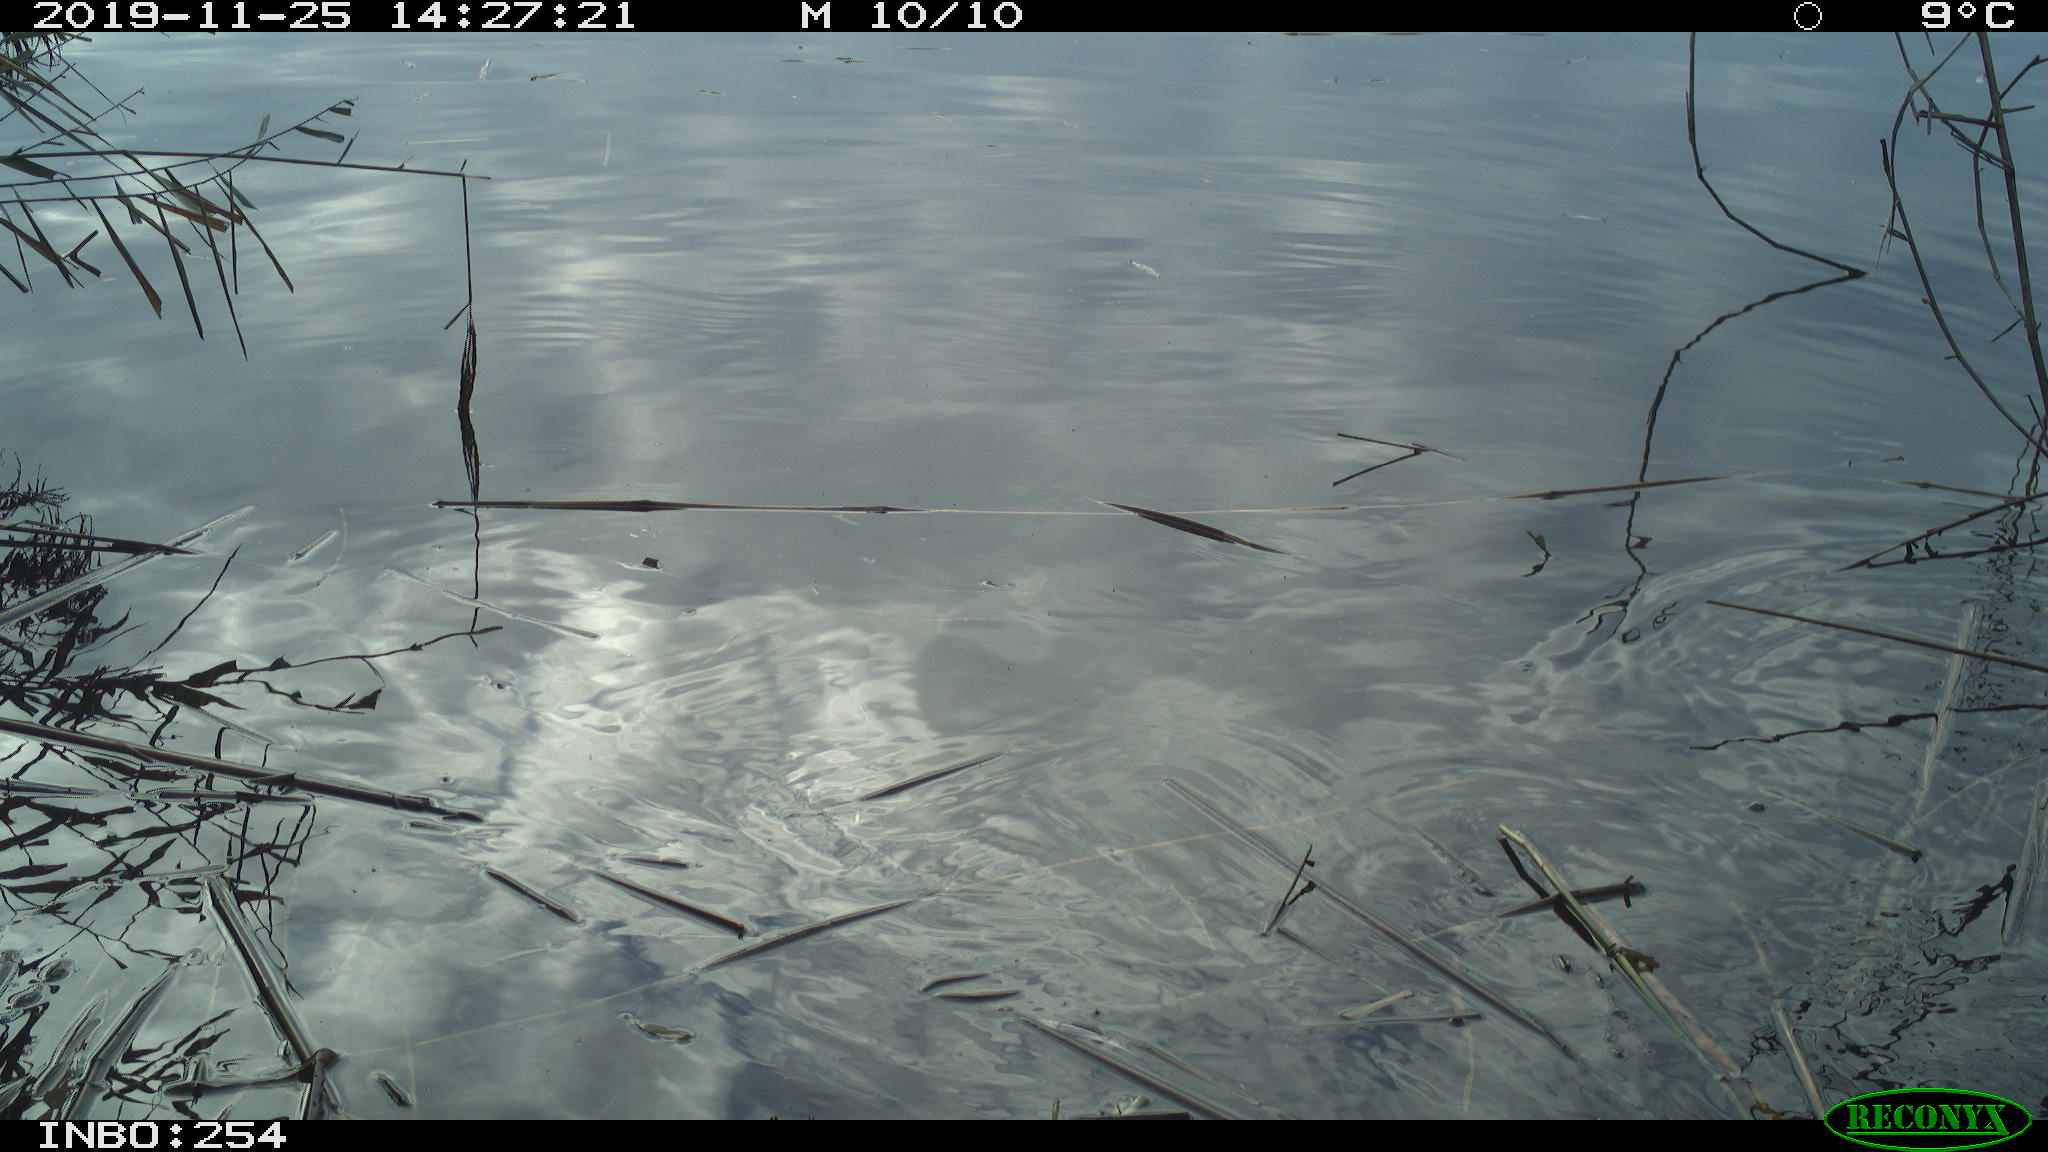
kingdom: Animalia
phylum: Chordata
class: Aves
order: Gruiformes
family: Rallidae
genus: Gallinula
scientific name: Gallinula chloropus
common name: Common moorhen
